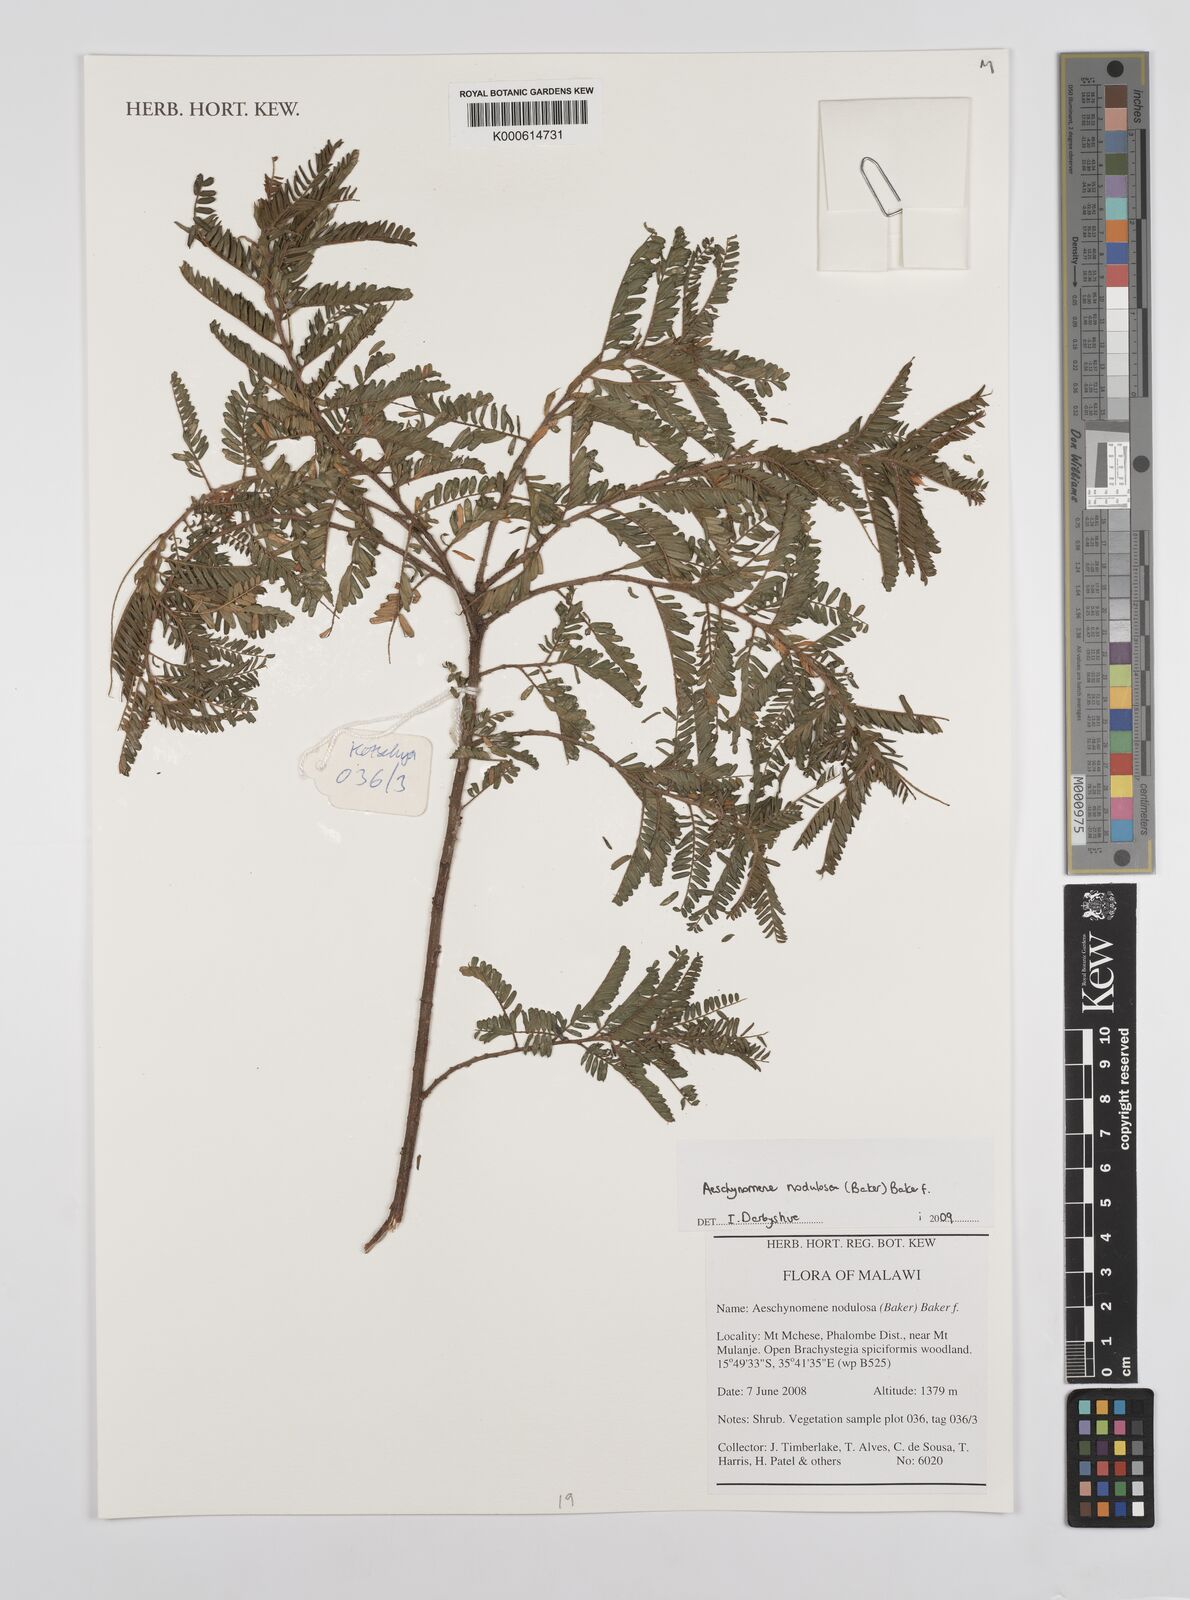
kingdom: Plantae
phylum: Tracheophyta
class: Magnoliopsida
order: Fabales
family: Fabaceae
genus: Aeschynomene
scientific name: Aeschynomene nodulosa
